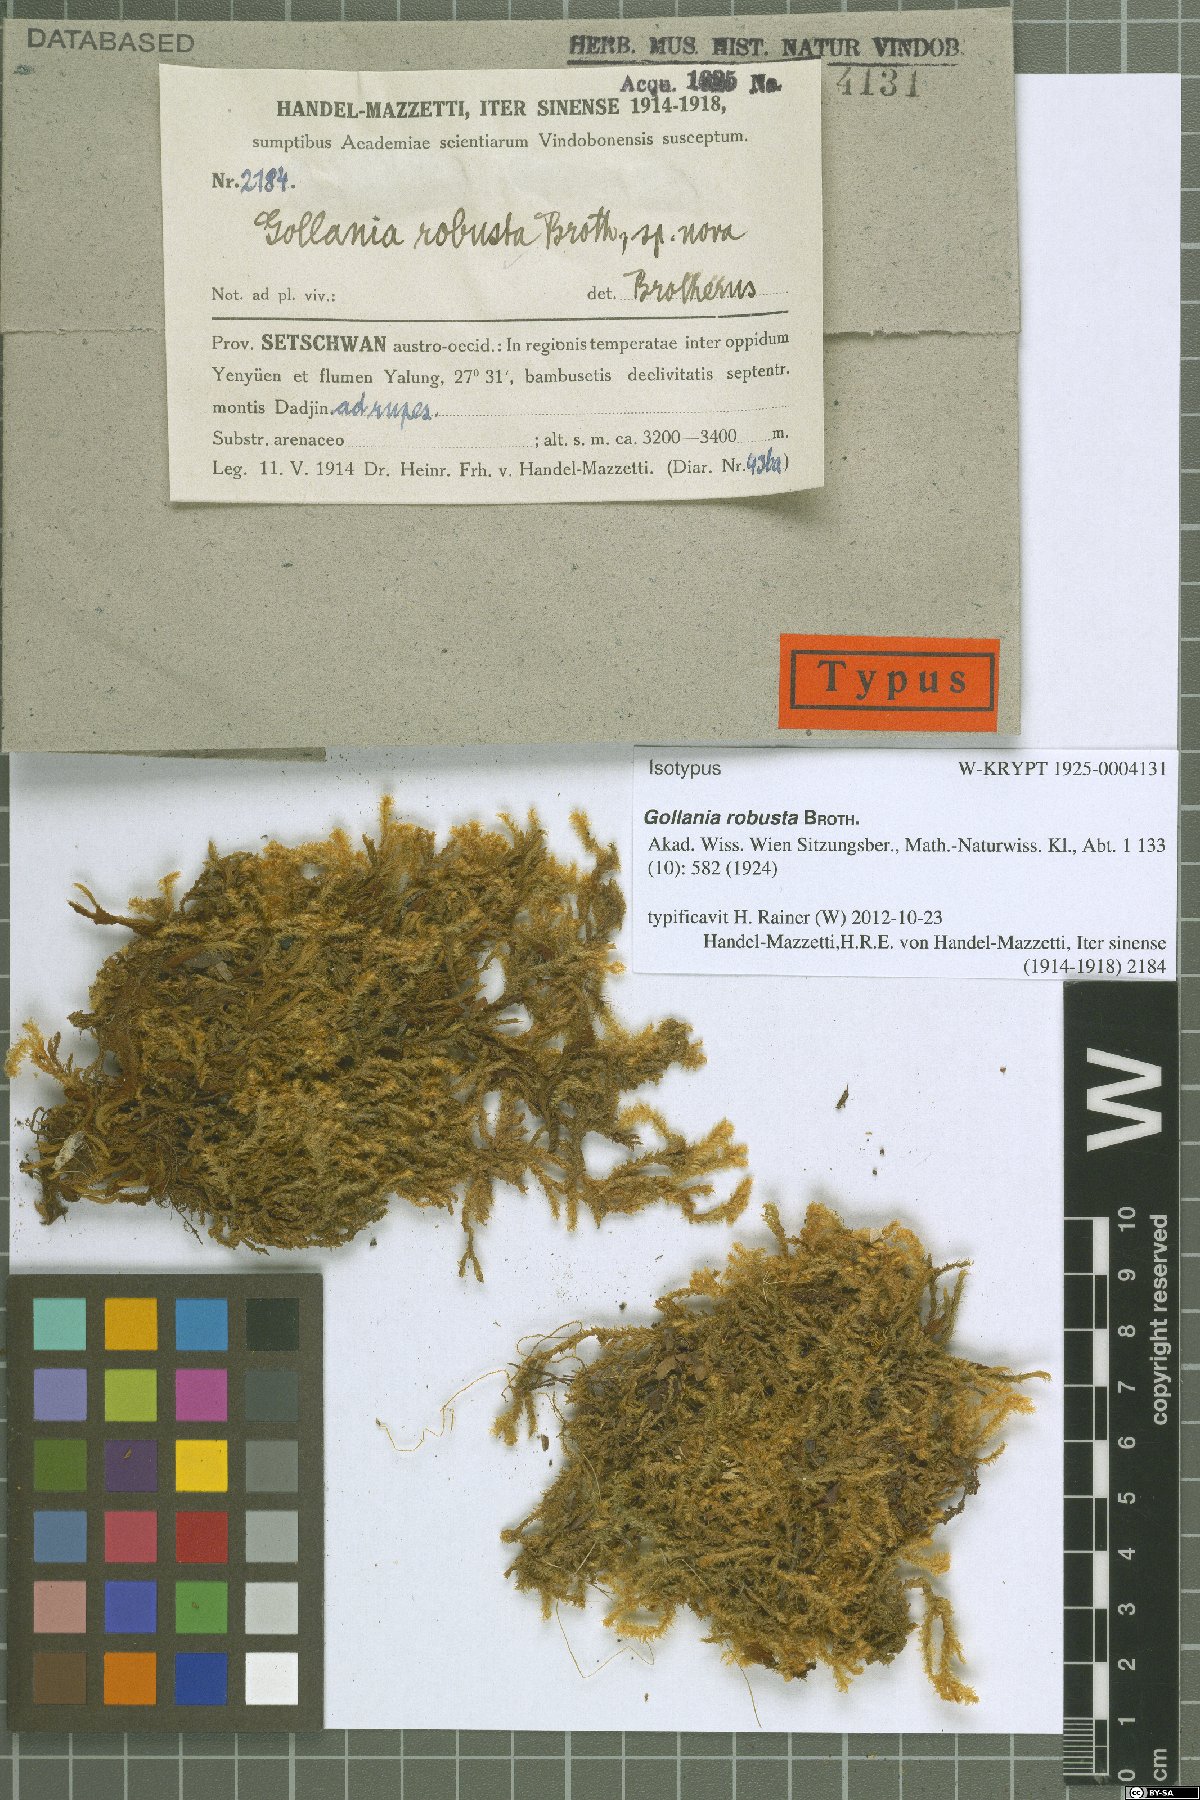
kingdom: Plantae
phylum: Bryophyta
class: Bryopsida
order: Hypnales
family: Hypnaceae
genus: Gollania
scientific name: Gollania robusta
